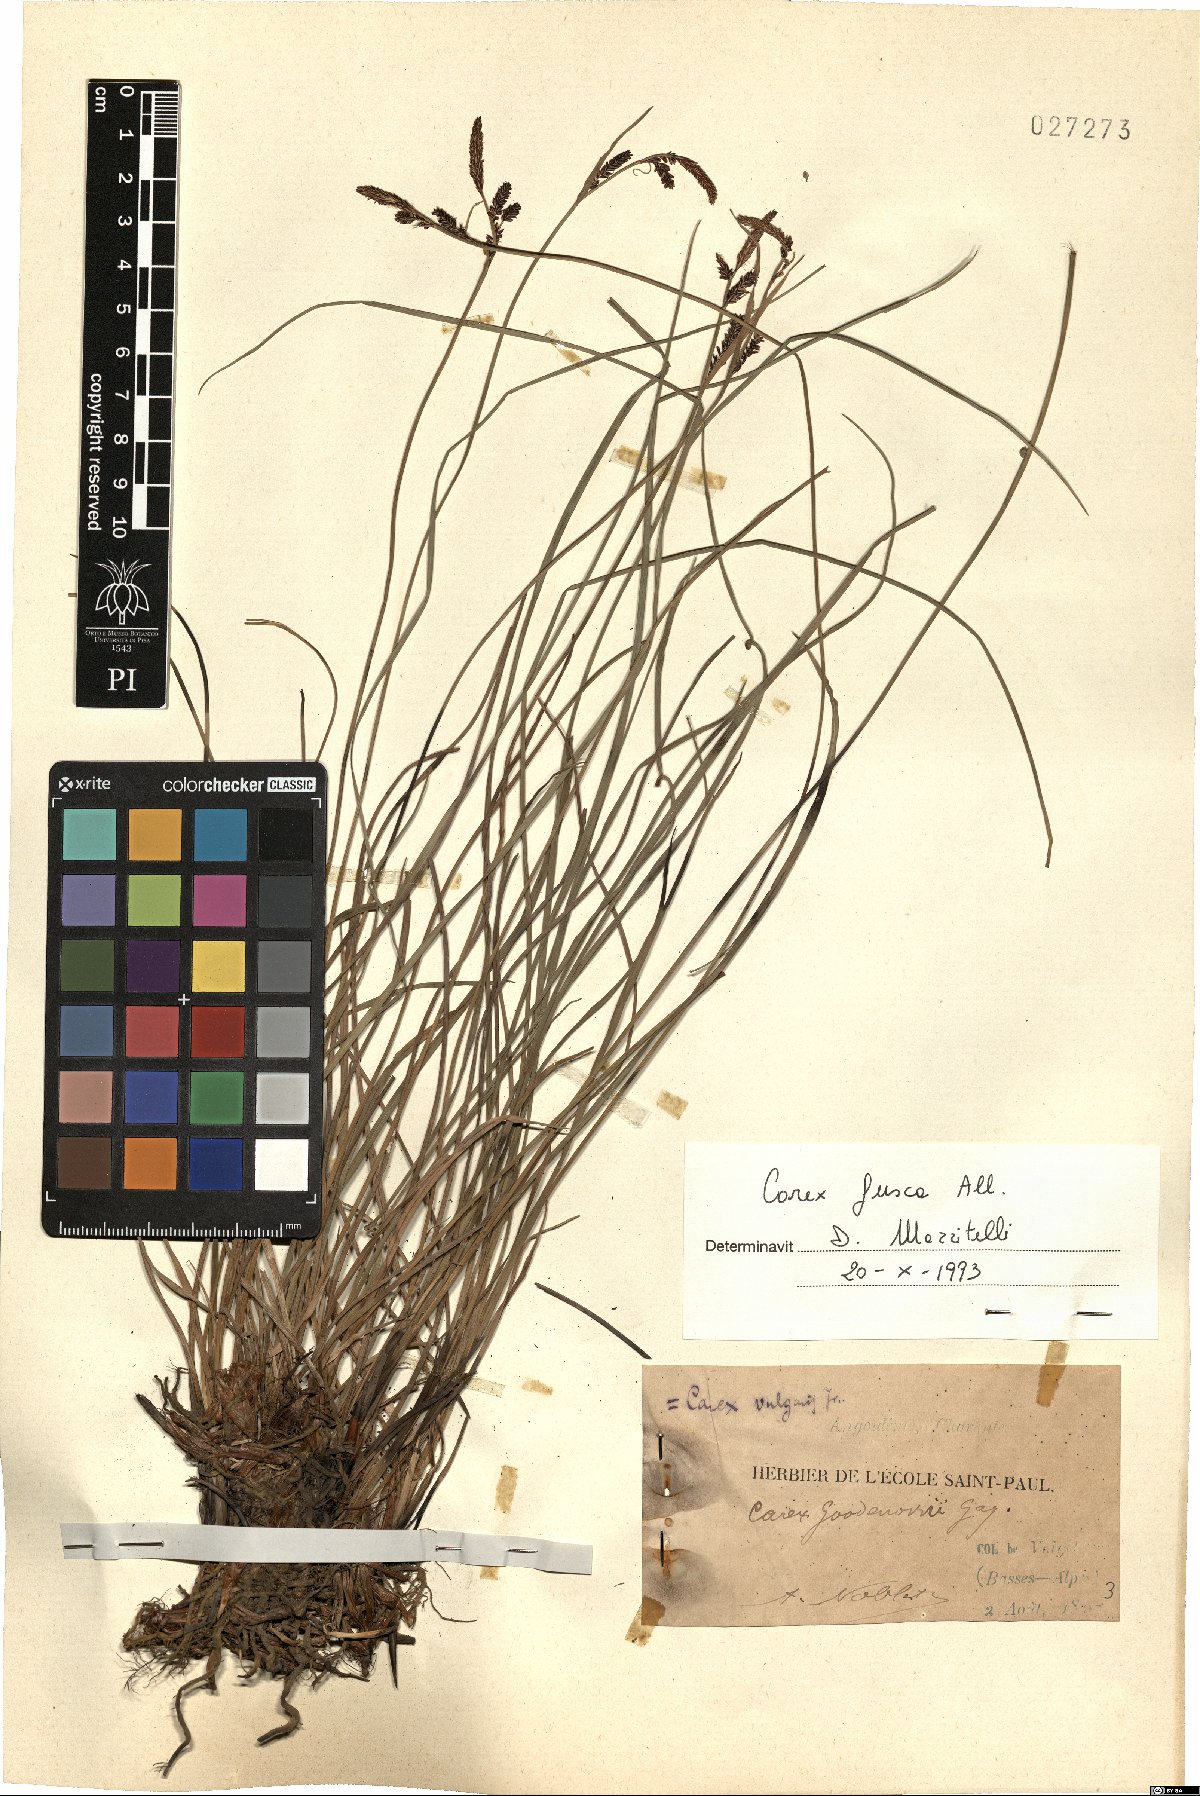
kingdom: Plantae
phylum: Tracheophyta
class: Liliopsida
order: Poales
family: Cyperaceae
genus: Carex
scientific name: Carex nigra
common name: Common sedge
